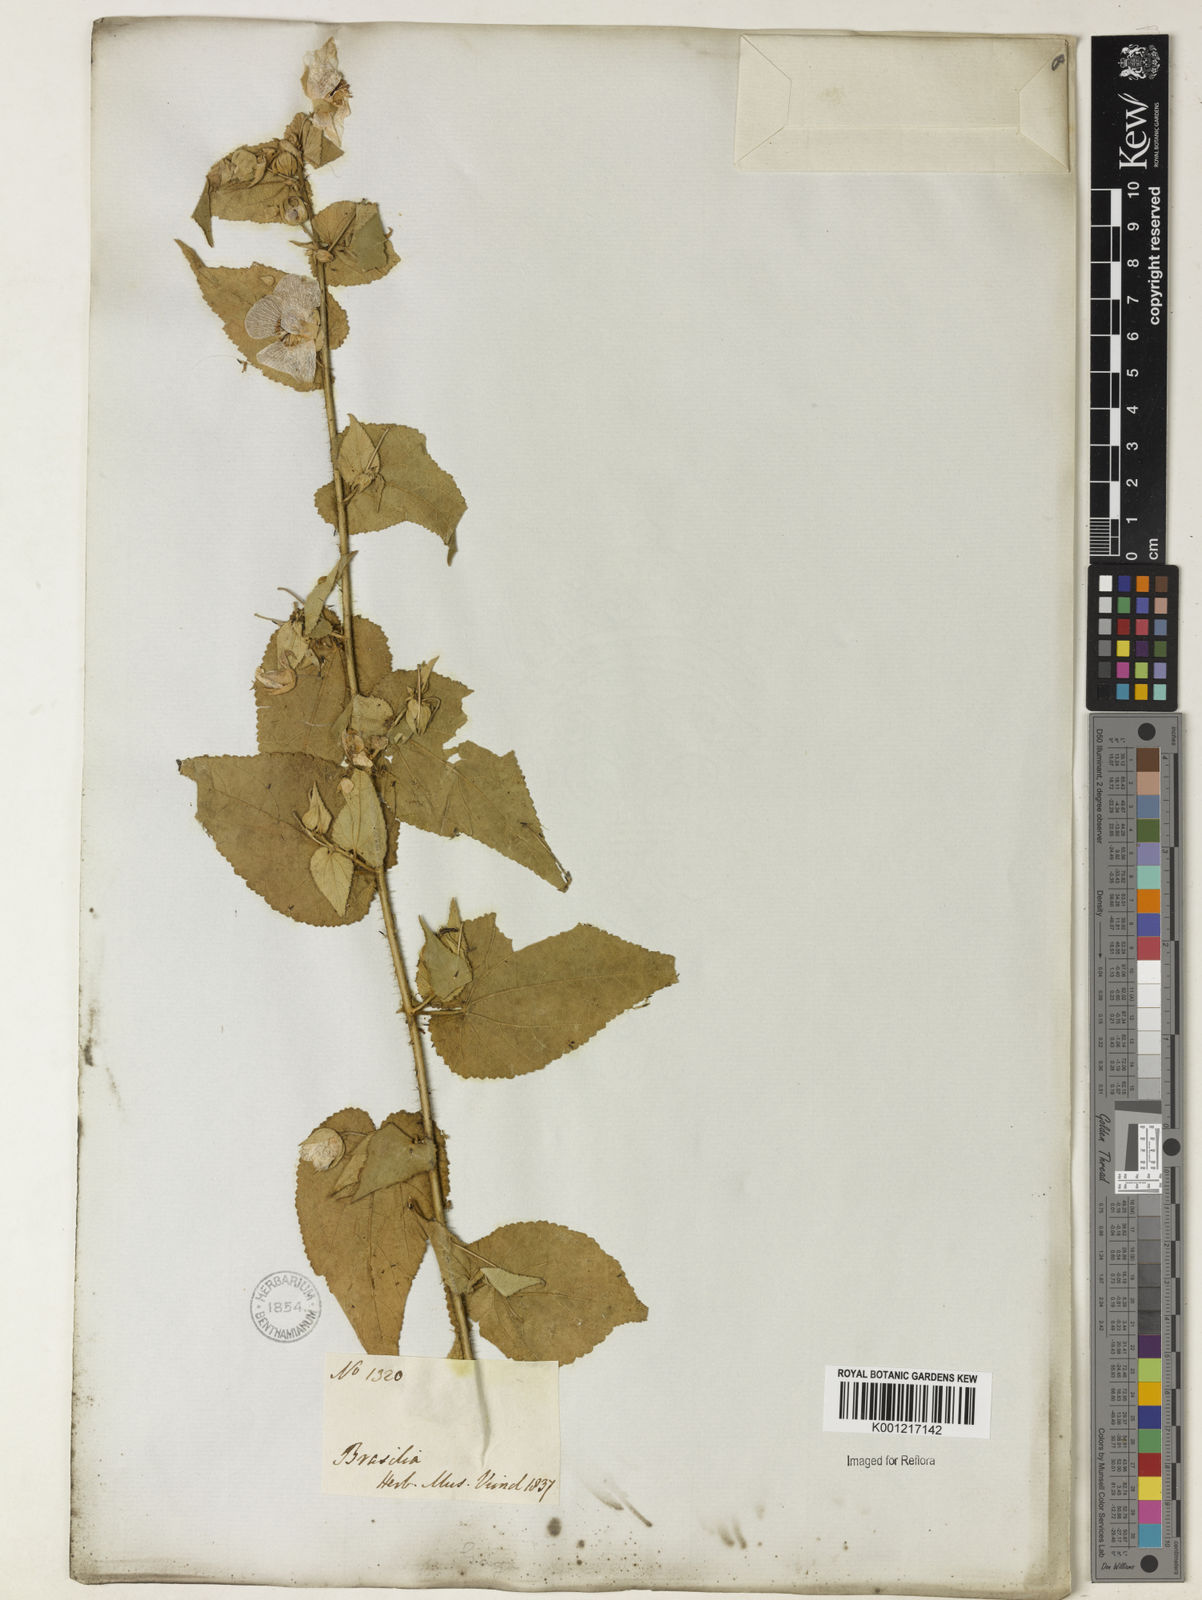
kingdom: Plantae
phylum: Tracheophyta
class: Magnoliopsida
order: Malvales
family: Malvaceae
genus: Sida
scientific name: Sida
